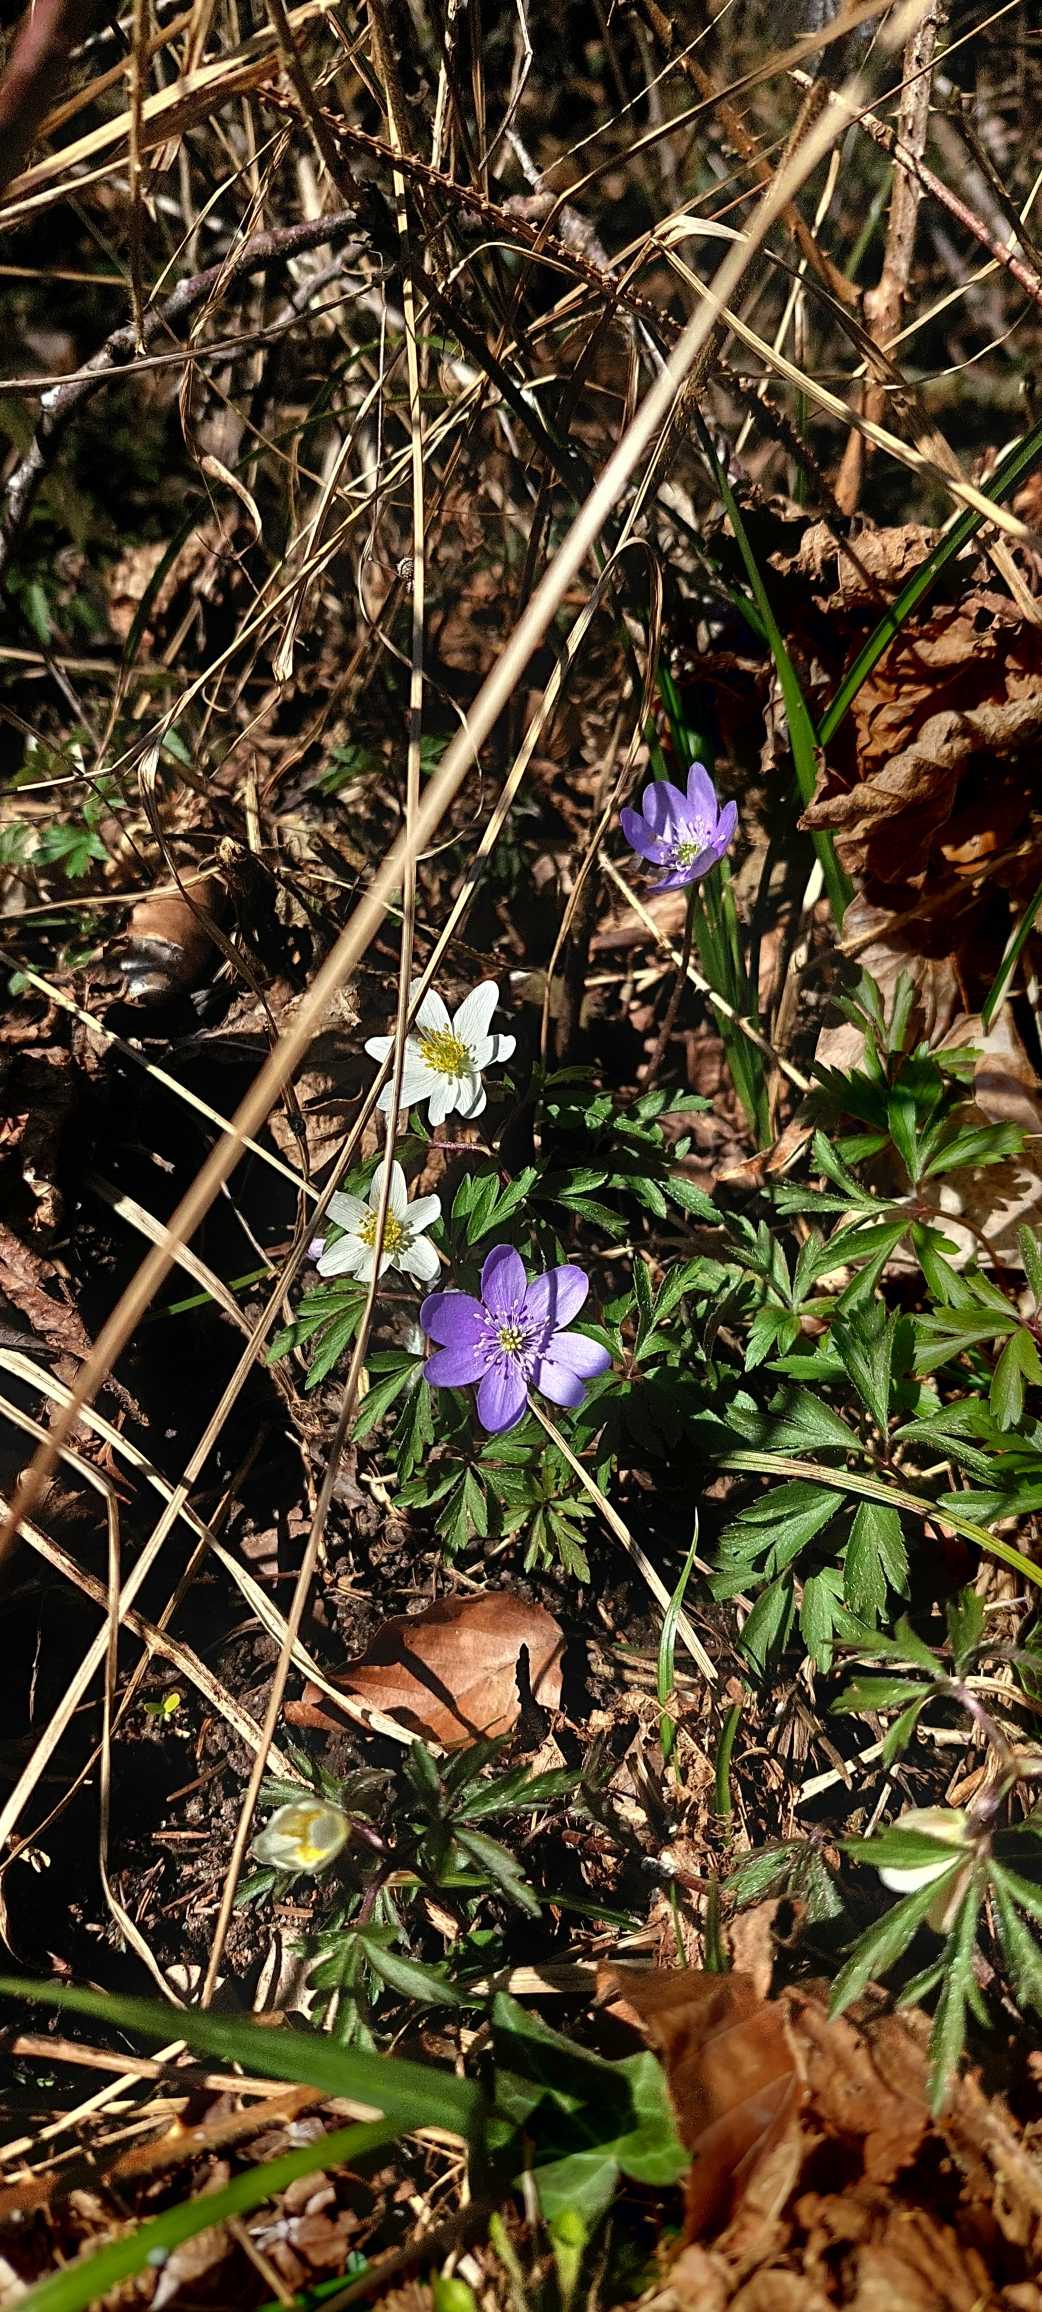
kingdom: Plantae
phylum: Tracheophyta
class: Magnoliopsida
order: Ranunculales
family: Ranunculaceae
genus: Hepatica
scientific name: Hepatica nobilis
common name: Blå anemone
